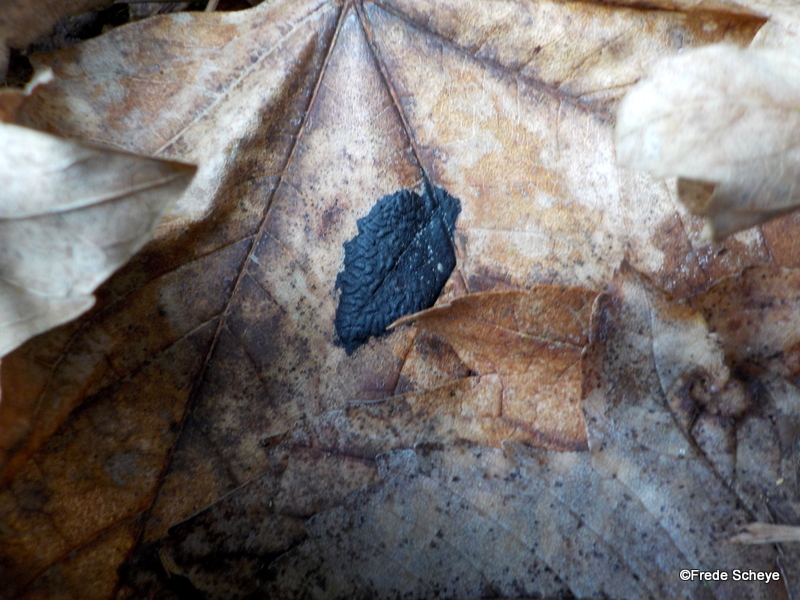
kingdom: Fungi
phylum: Ascomycota
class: Leotiomycetes
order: Rhytismatales
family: Rhytismataceae
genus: Rhytisma
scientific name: Rhytisma acerinum
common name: ahorn-rynkeplet
